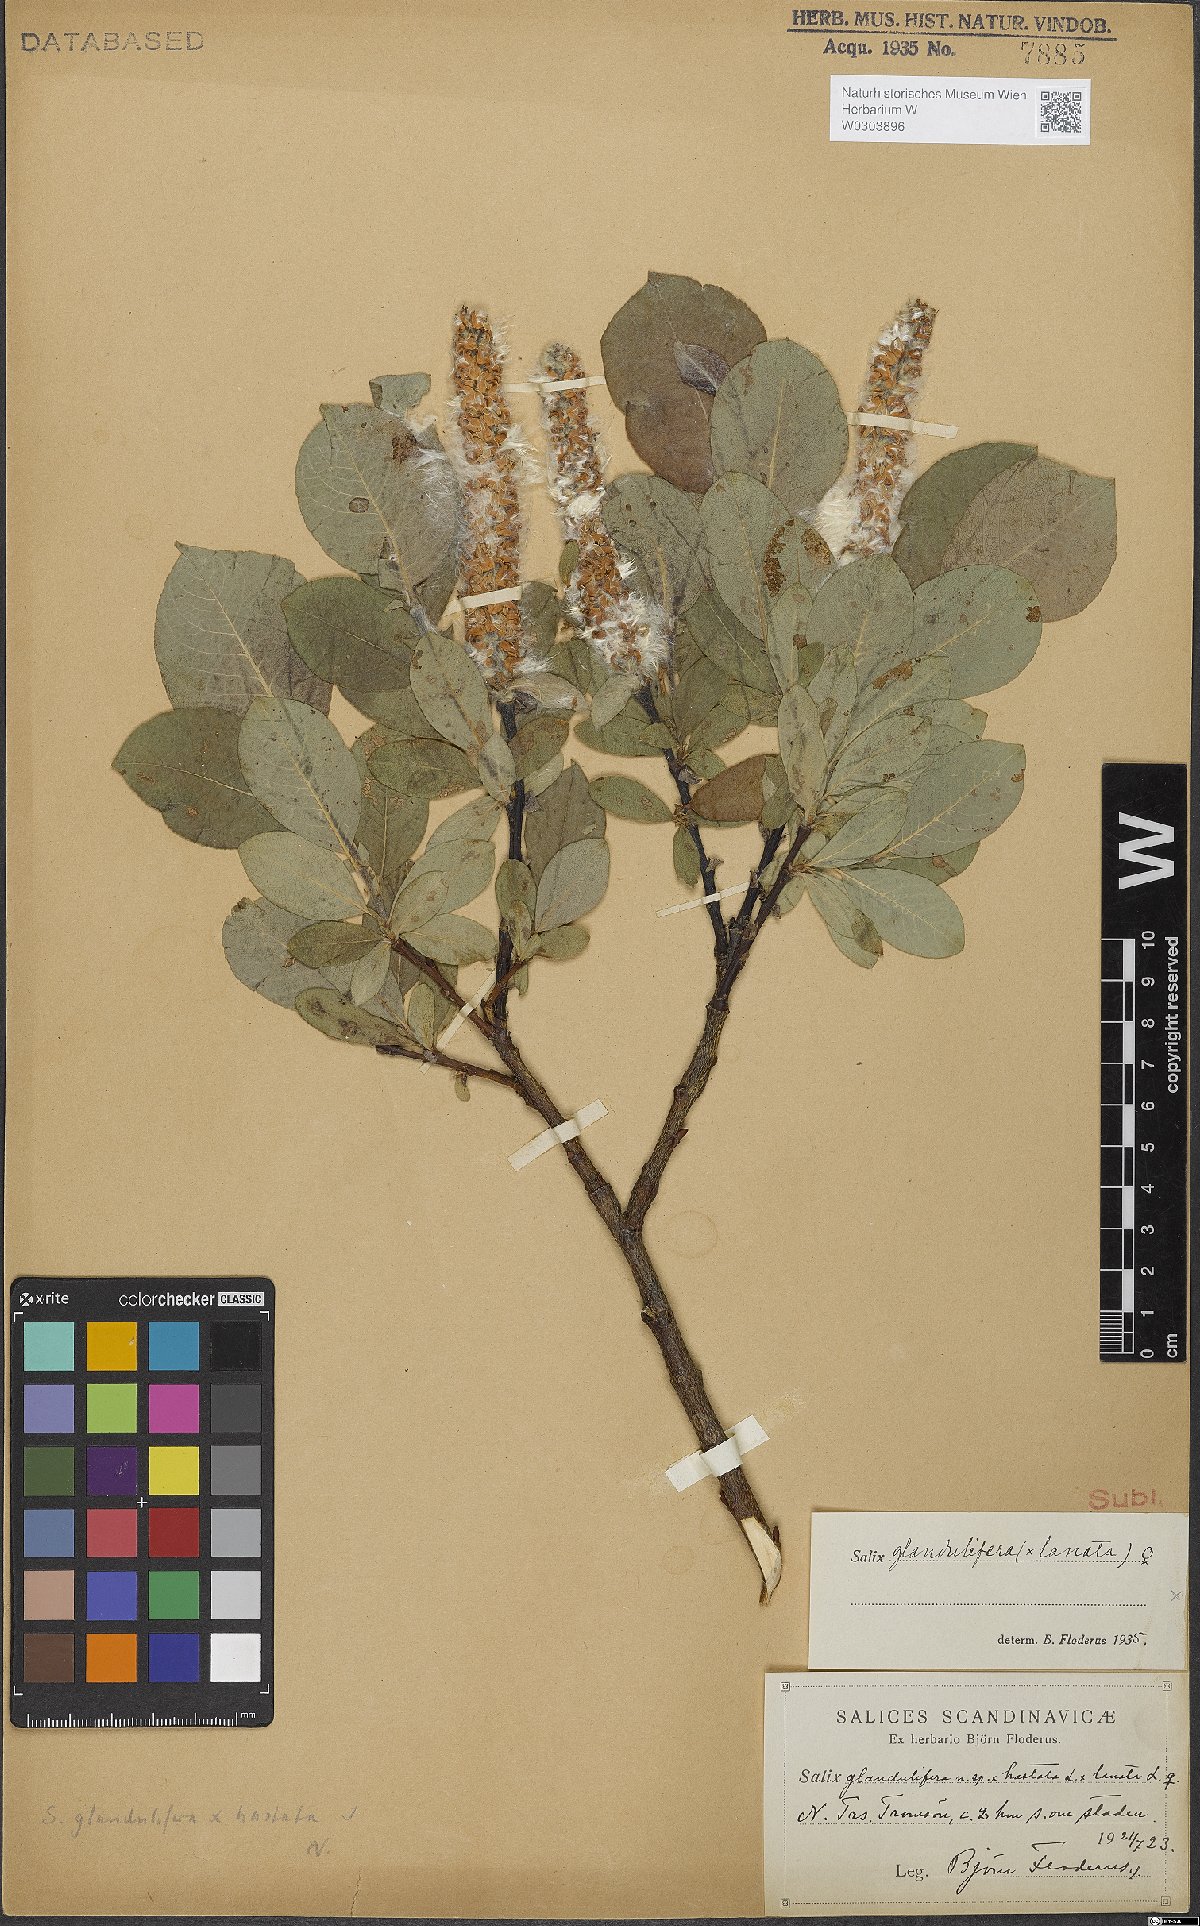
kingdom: Plantae
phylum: Tracheophyta
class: Magnoliopsida
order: Malpighiales
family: Salicaceae
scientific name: Salicaceae
